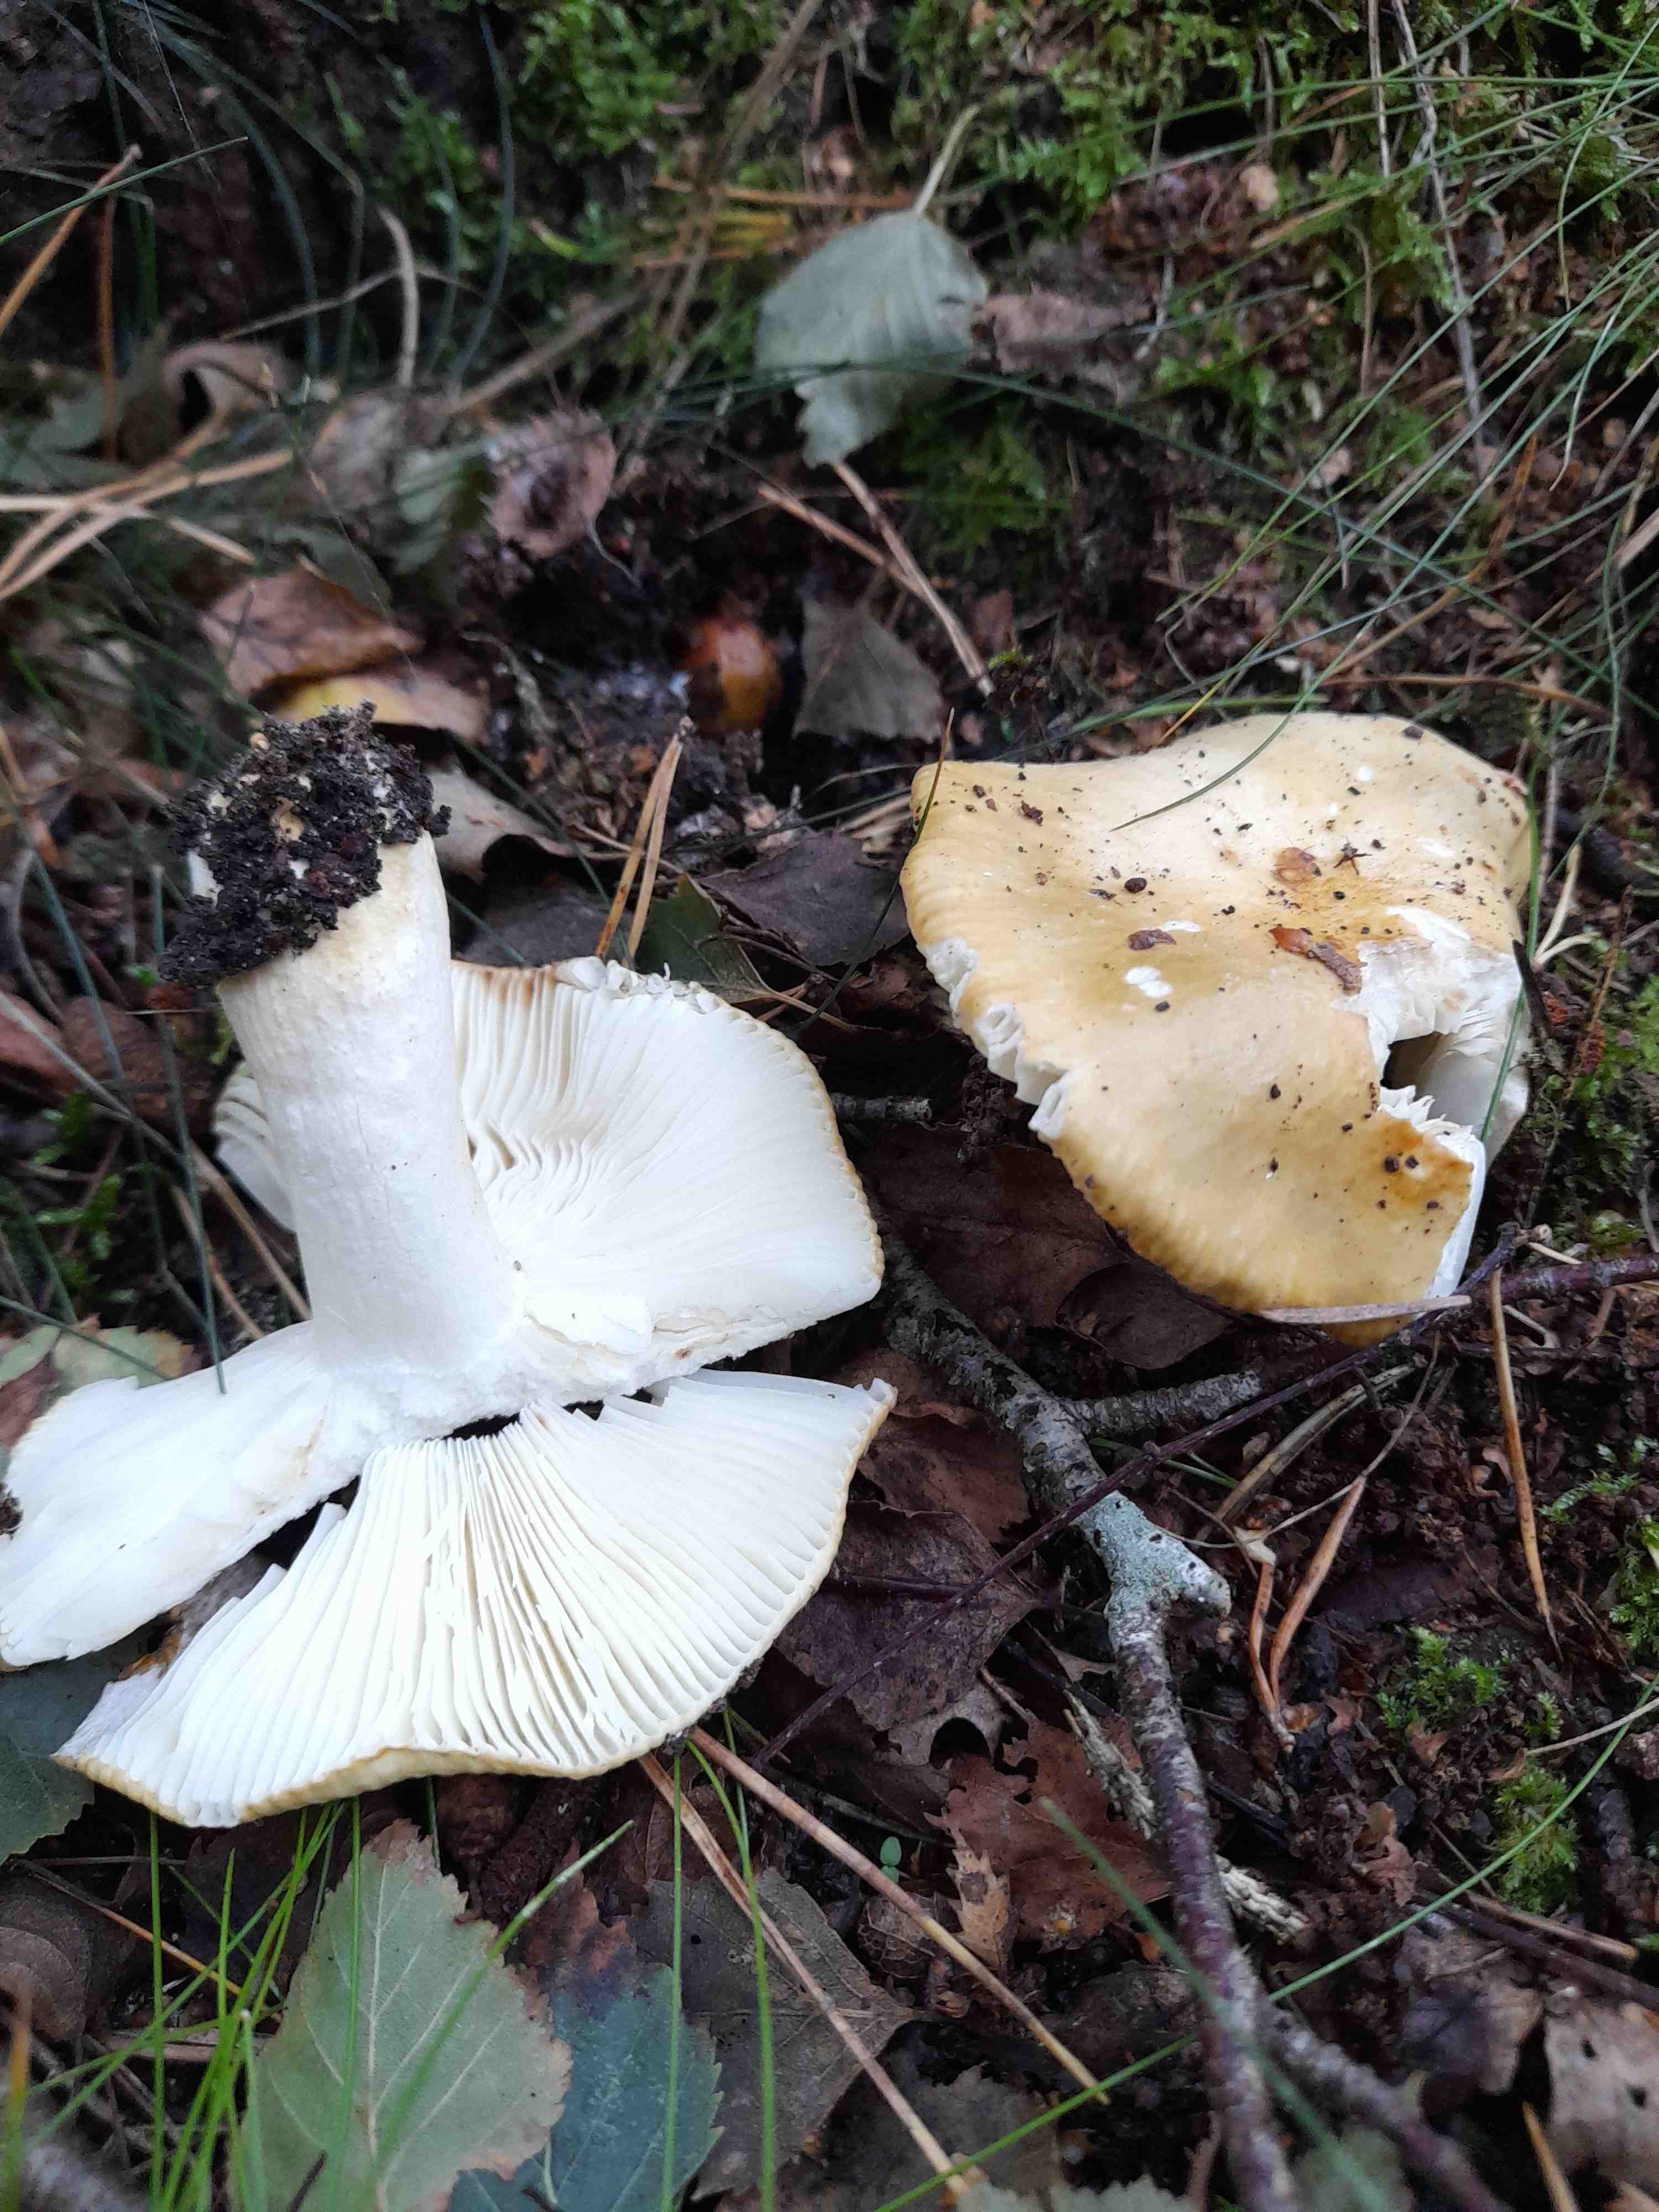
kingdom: Fungi
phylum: Basidiomycota
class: Agaricomycetes
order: Russulales
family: Russulaceae
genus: Russula
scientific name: Russula ochroleuca
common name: okkergul skørhat
